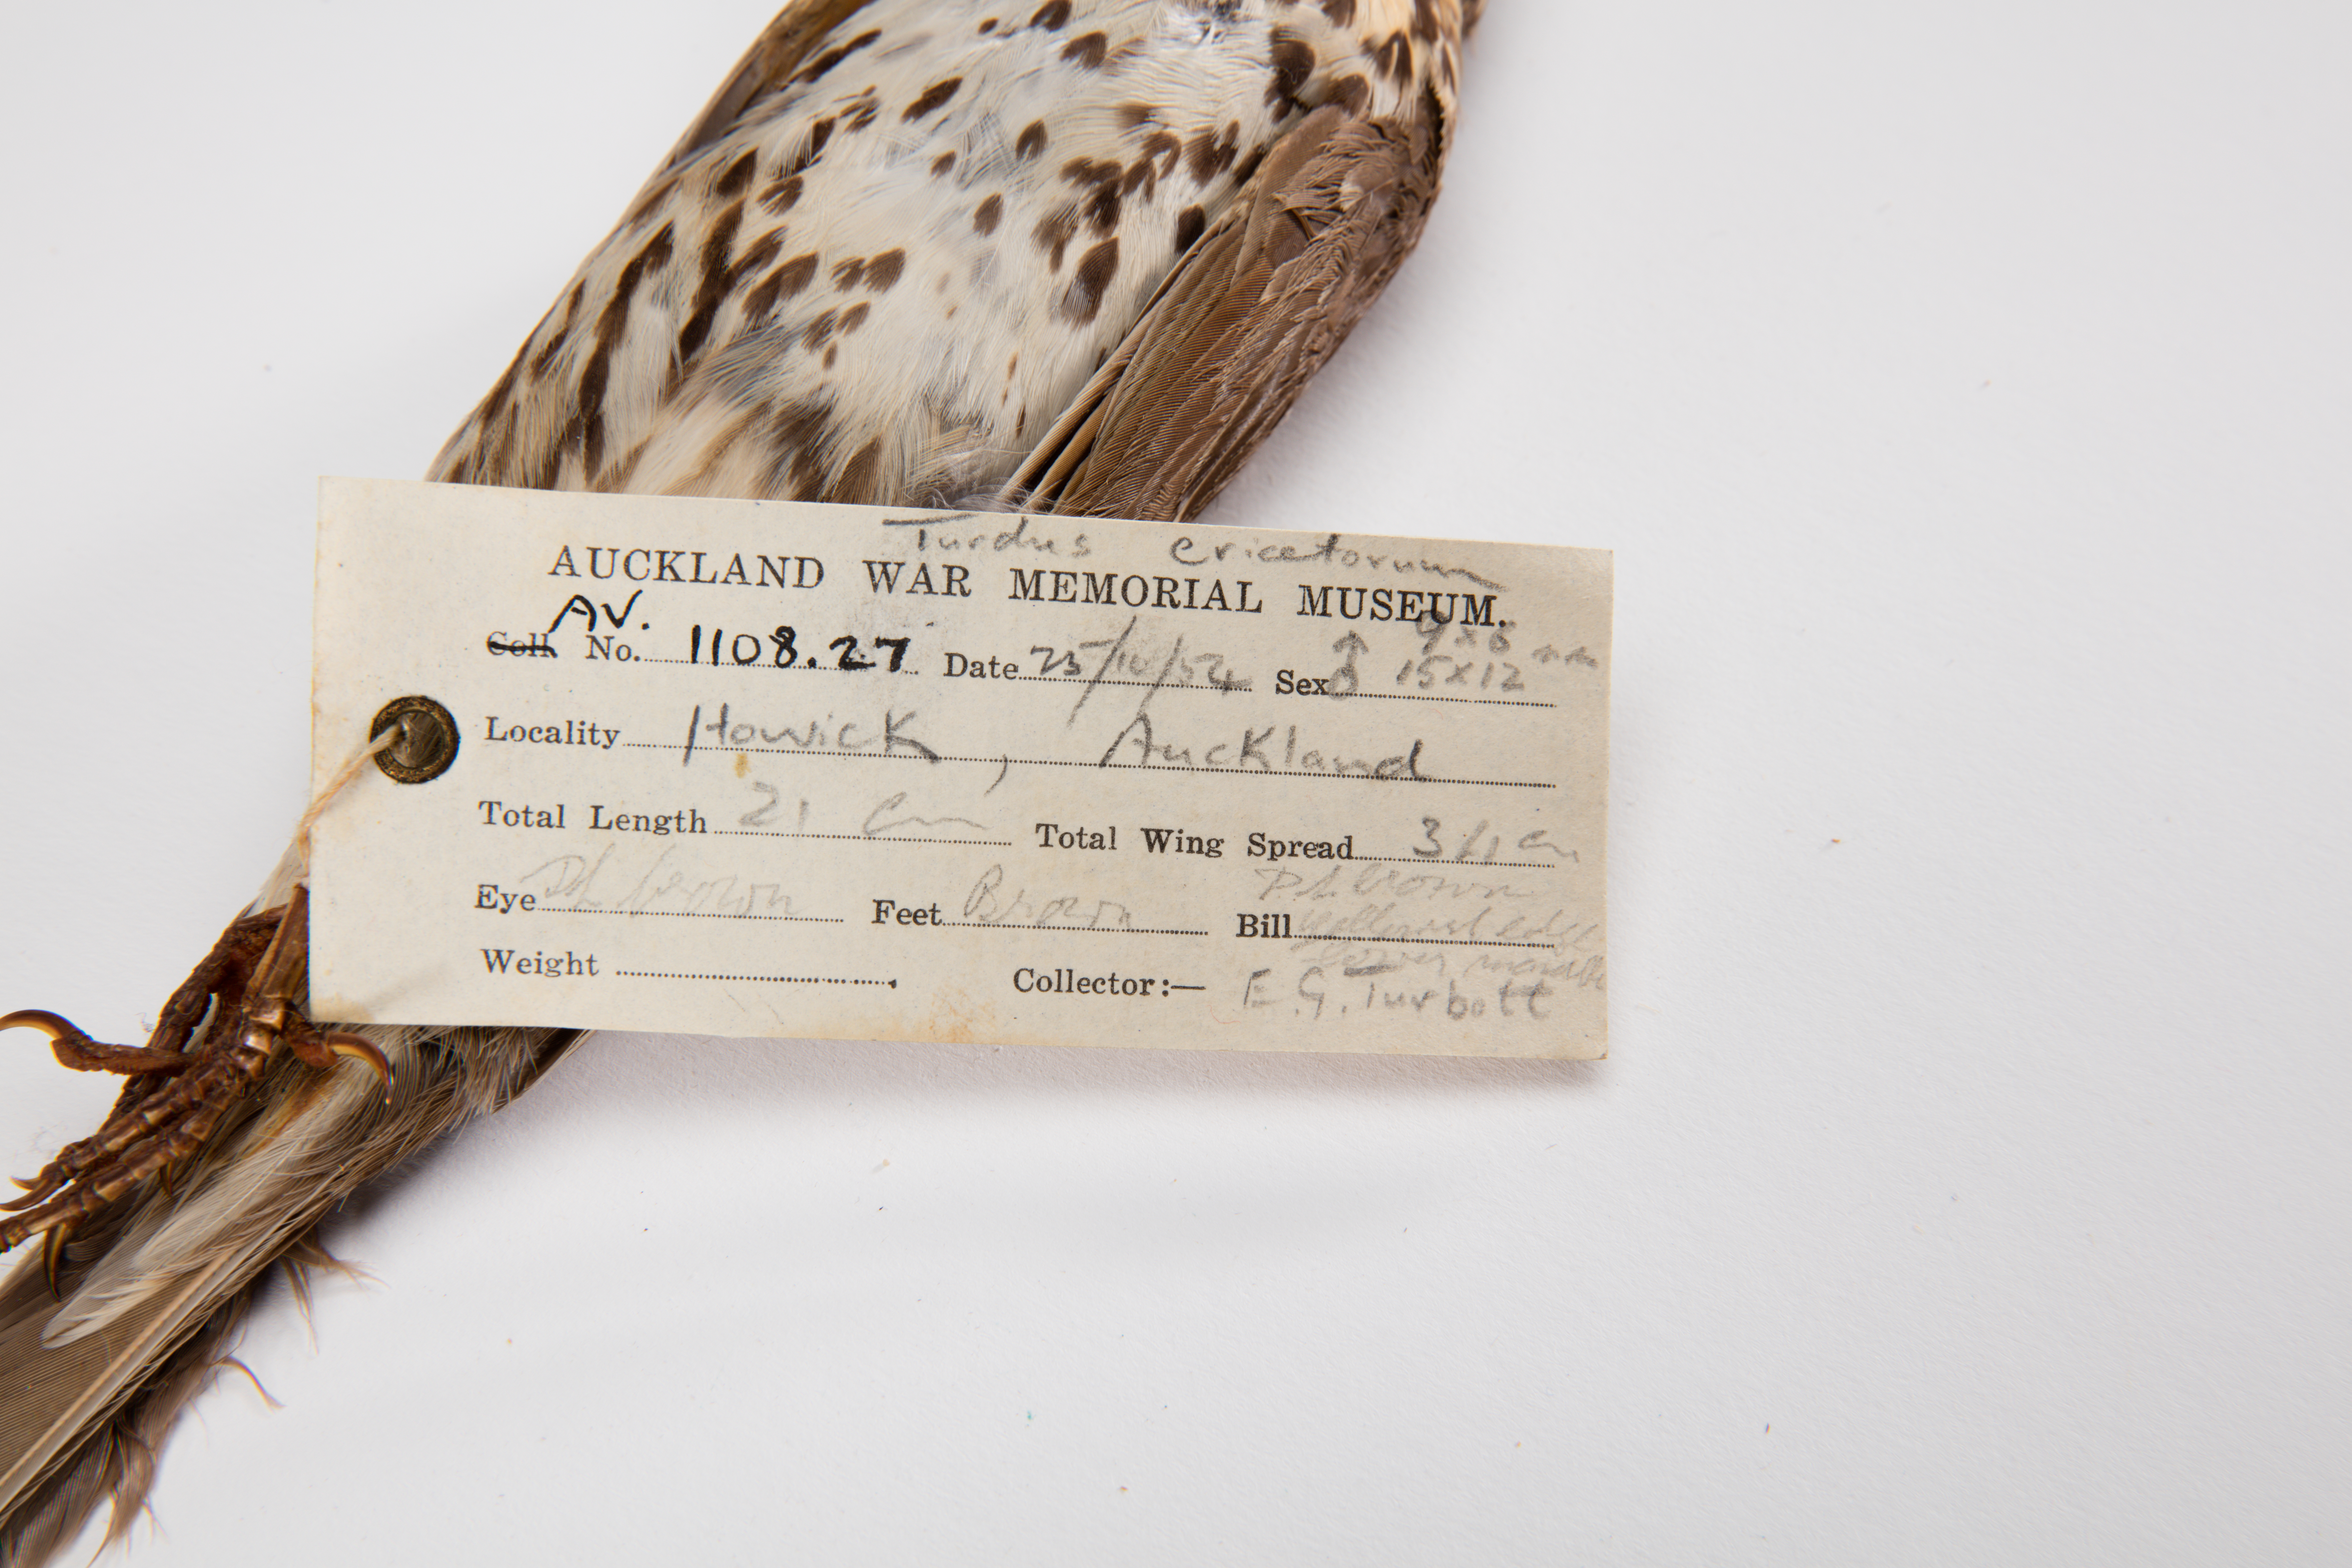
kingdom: Animalia
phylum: Chordata
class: Aves
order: Passeriformes
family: Turdidae
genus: Turdus
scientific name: Turdus philomelos
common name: Song thrush
